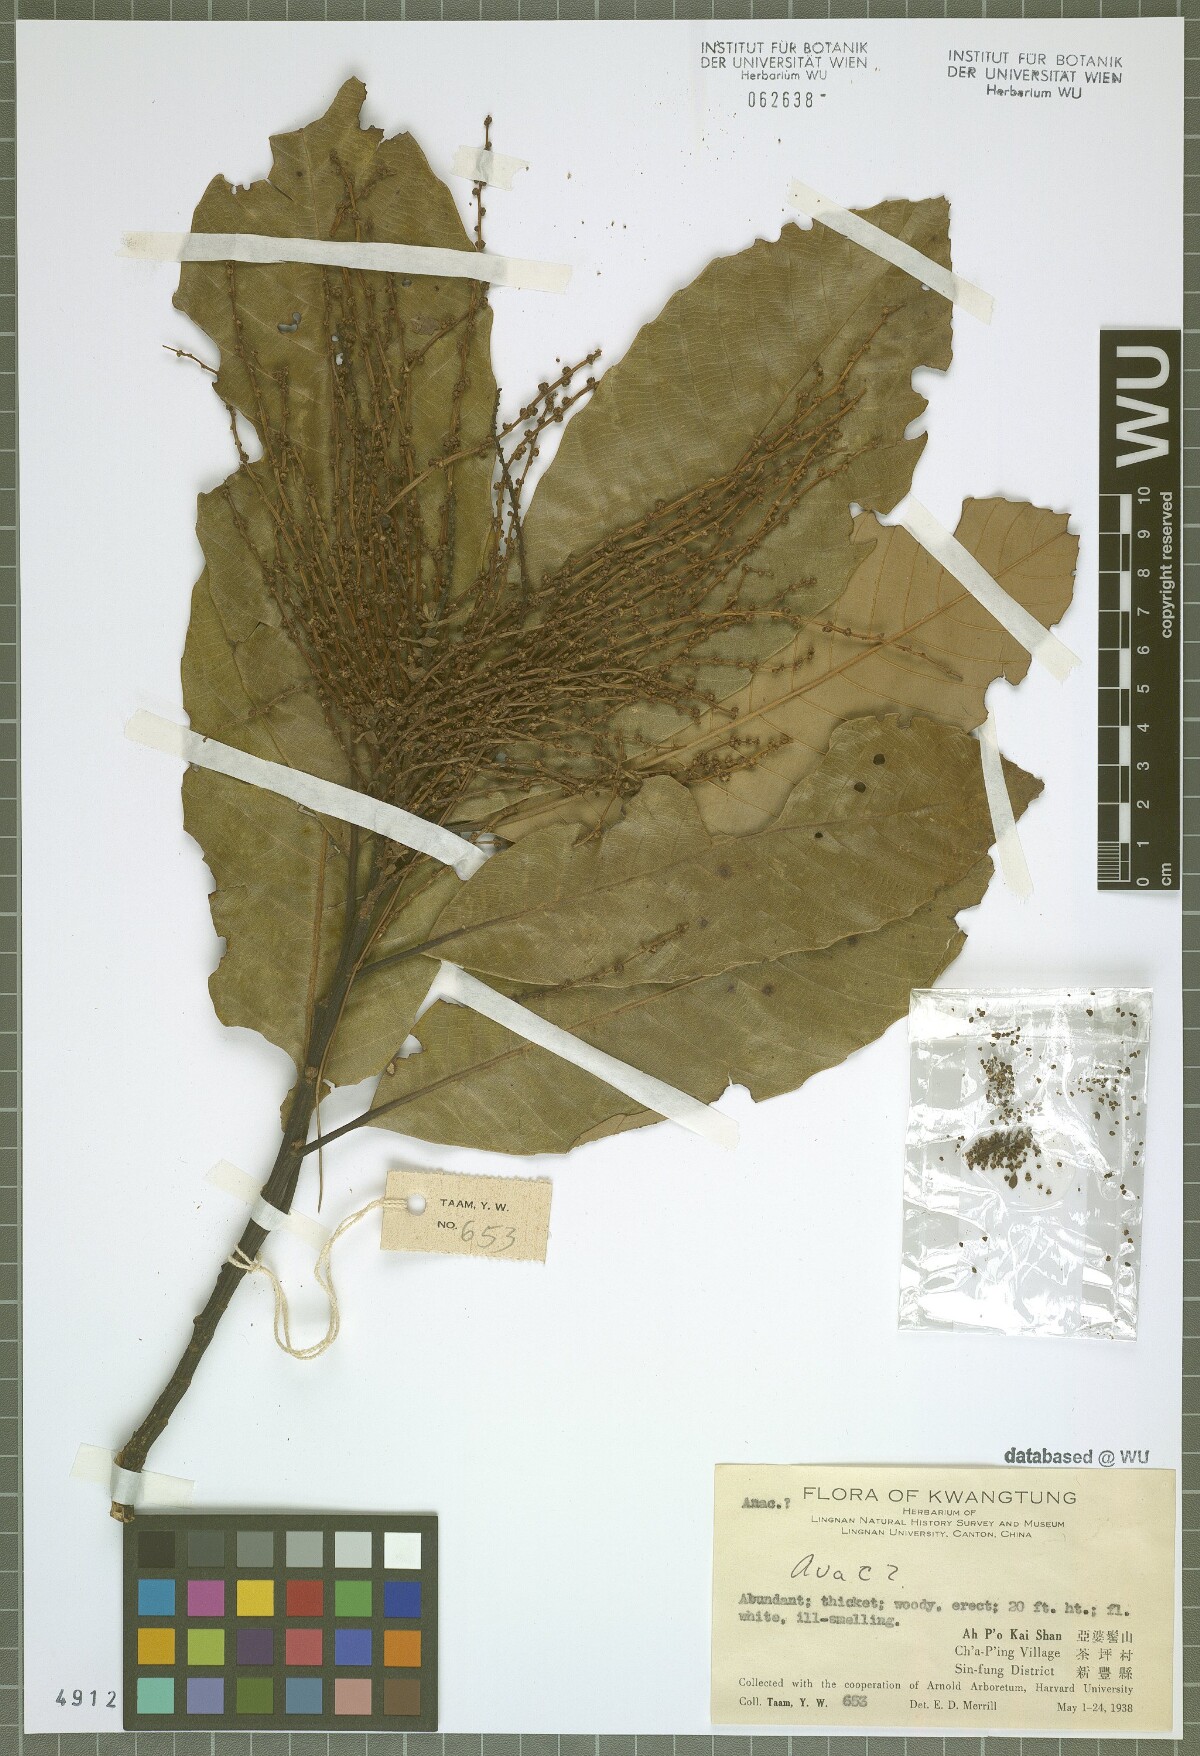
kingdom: Plantae
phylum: Tracheophyta
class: Magnoliopsida
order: Sapindales
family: Anacardiaceae
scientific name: Anacardiaceae
